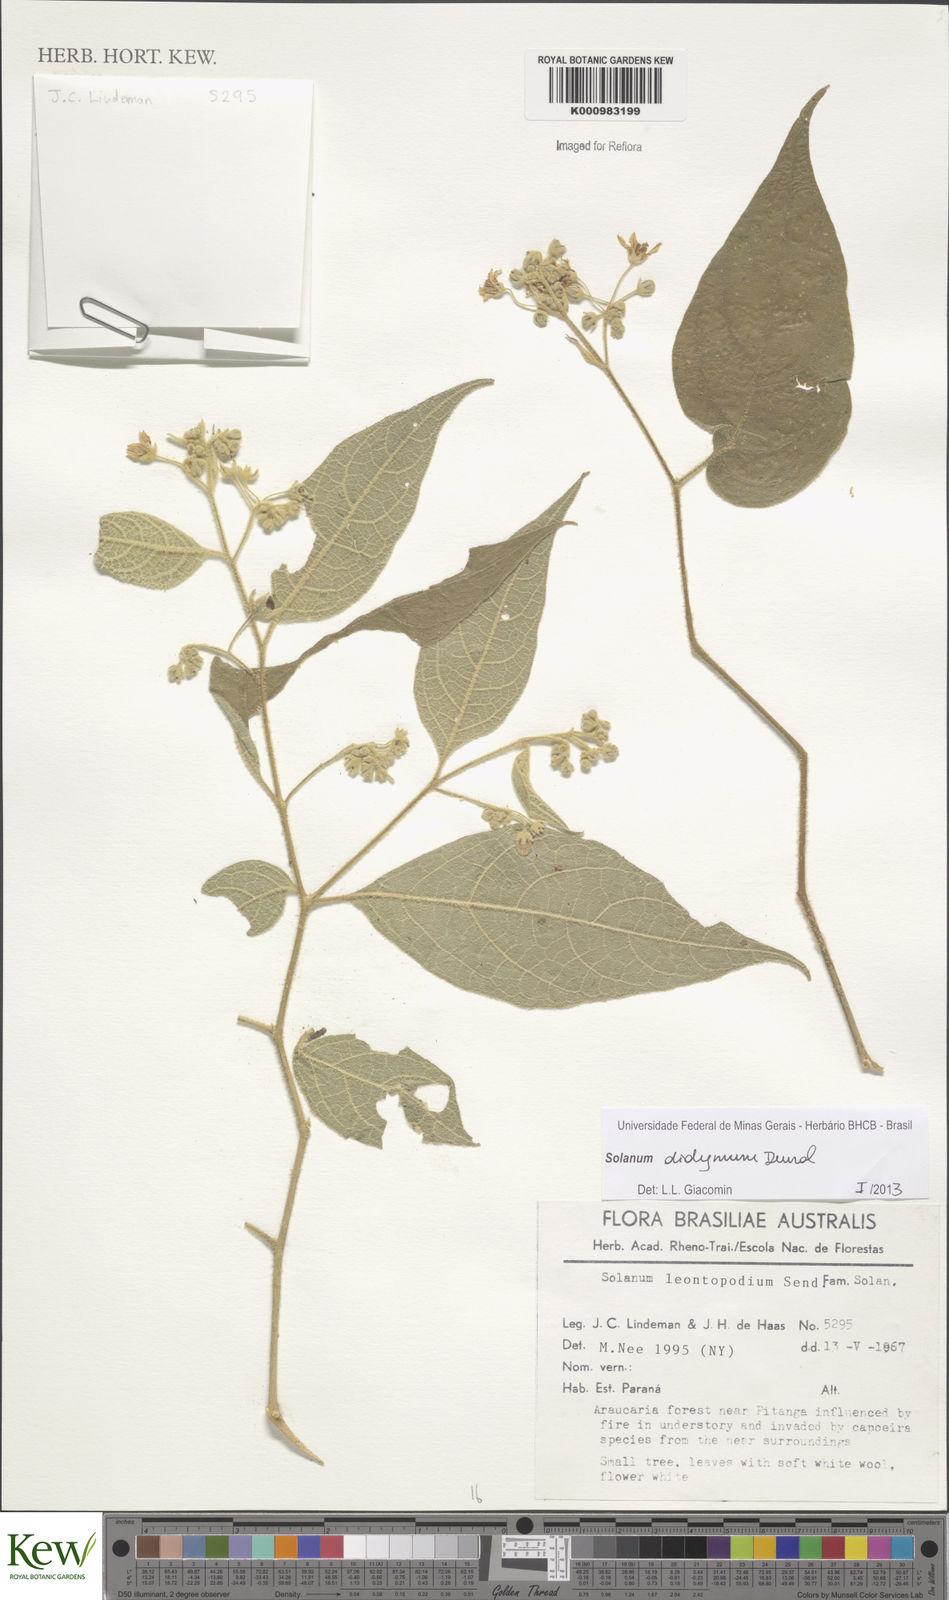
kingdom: Plantae
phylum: Tracheophyta
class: Magnoliopsida
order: Solanales
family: Solanaceae
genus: Solanum
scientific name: Solanum subsylvestre
